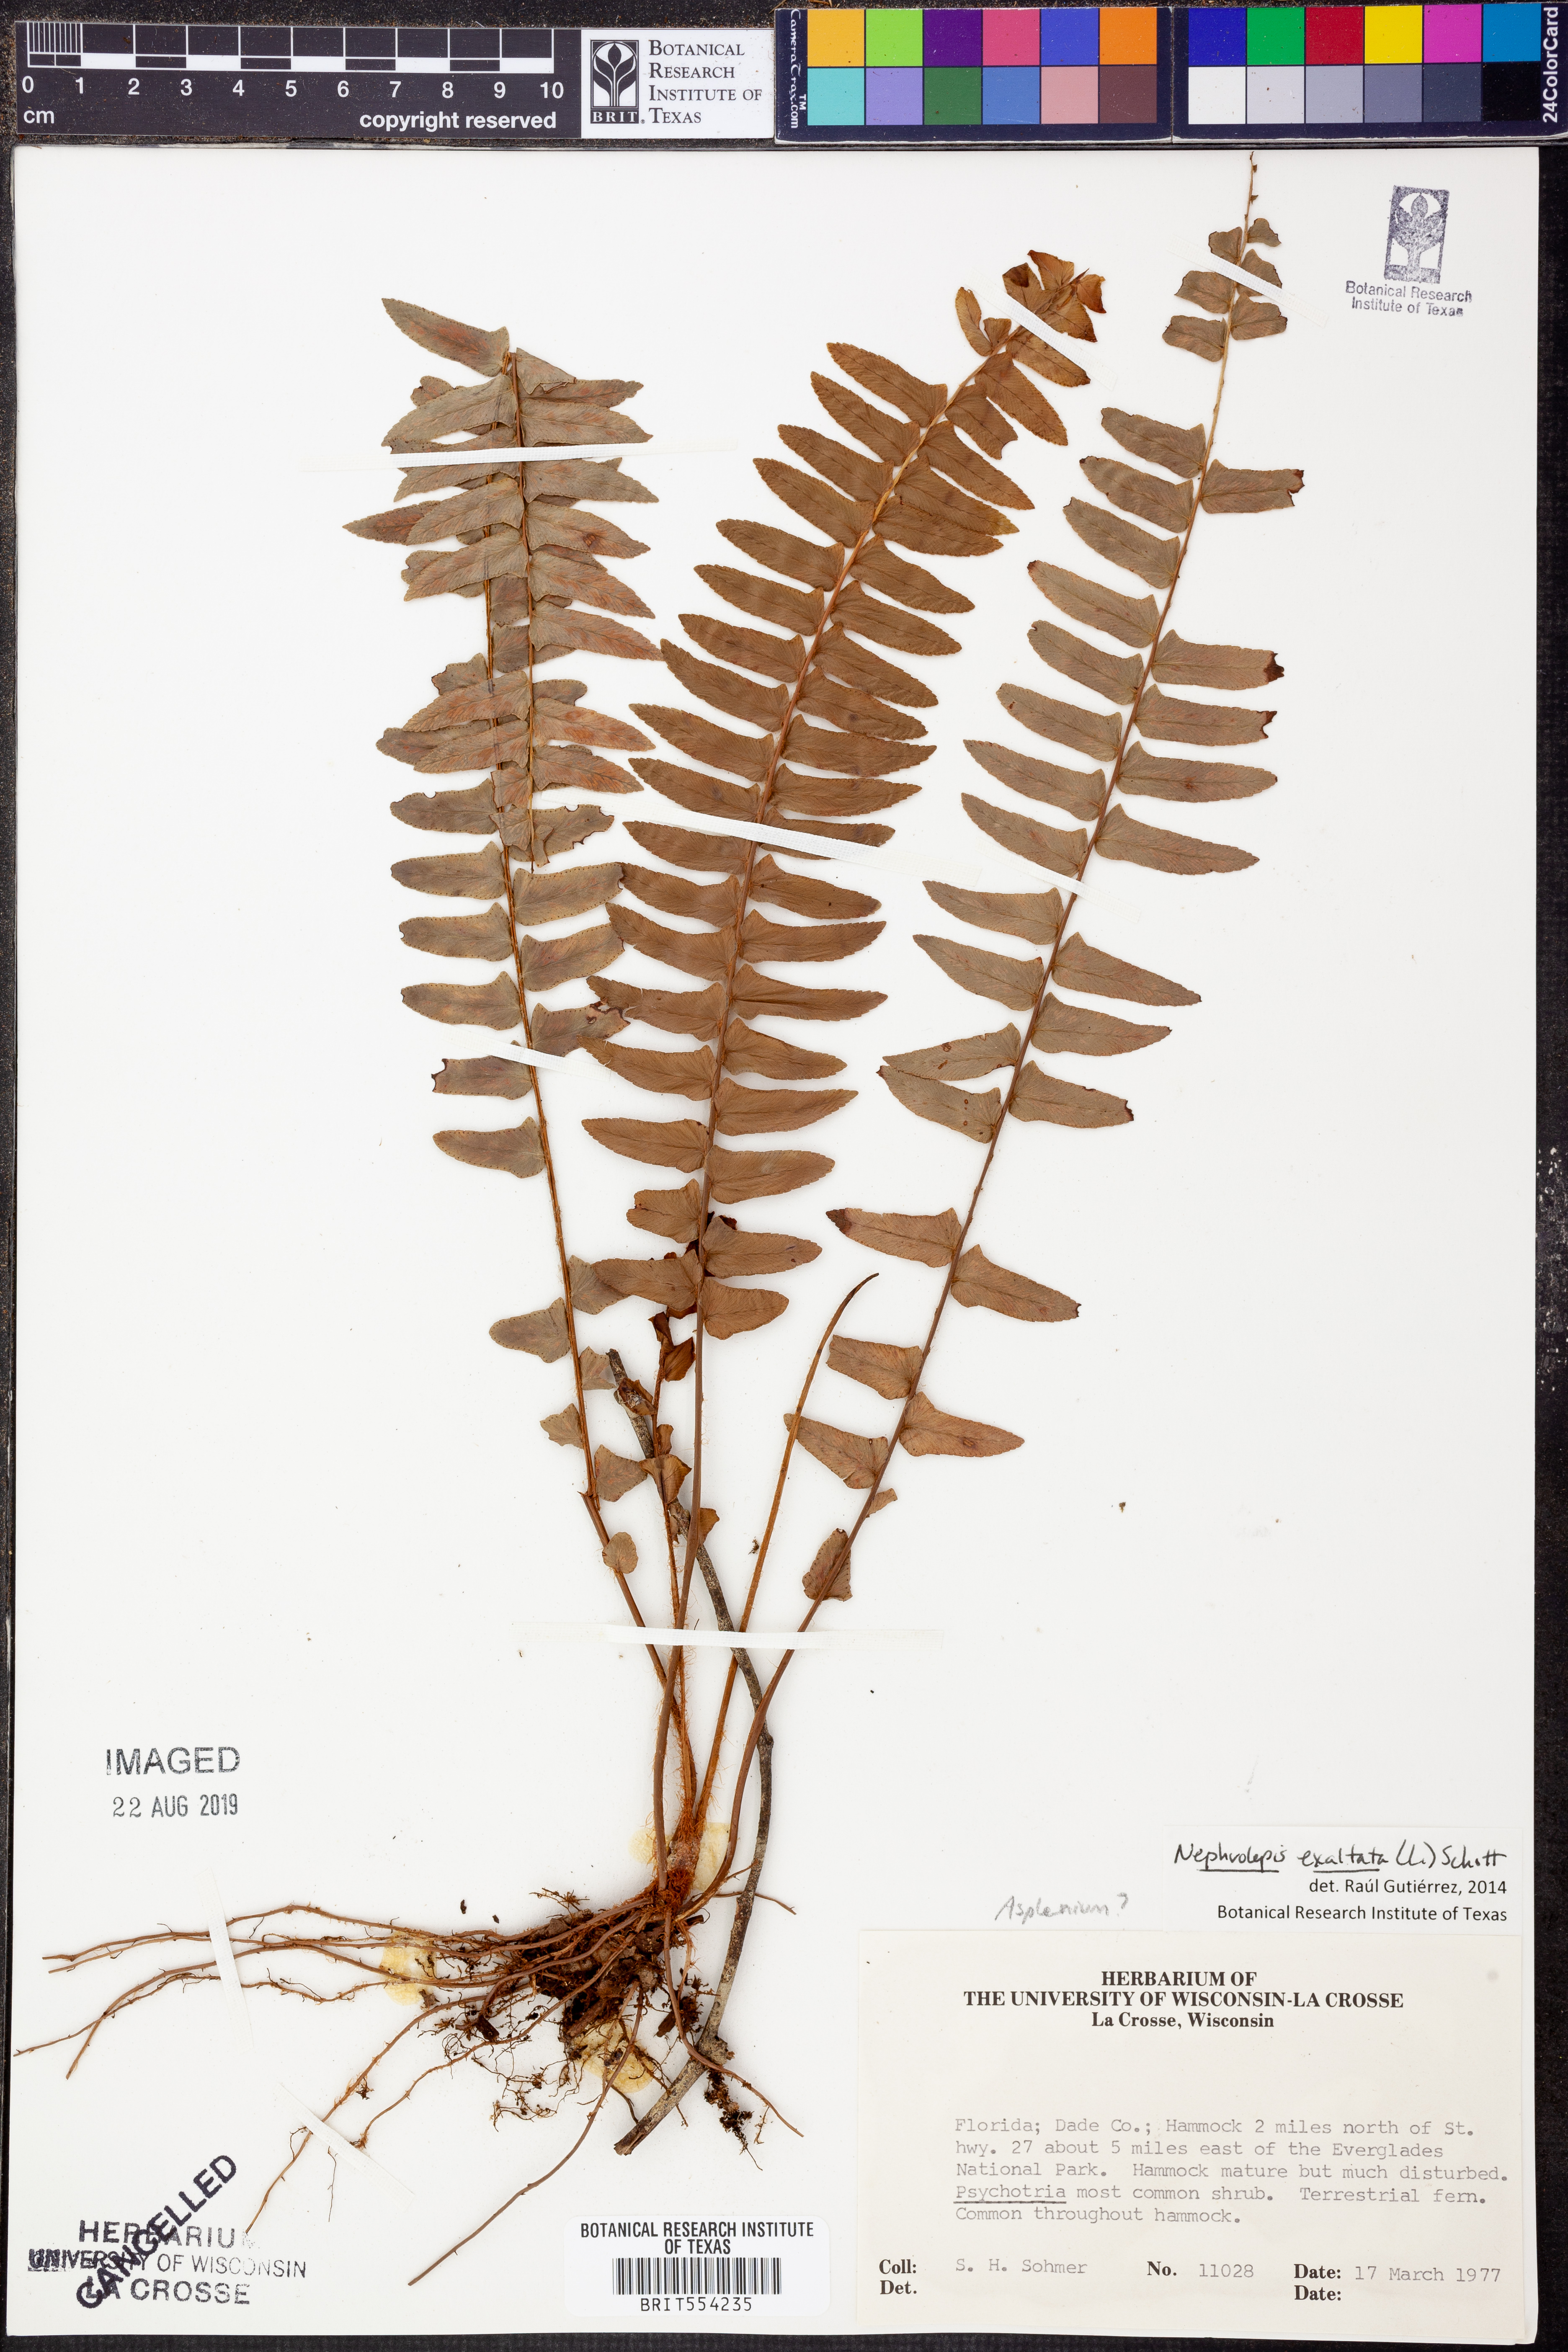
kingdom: Plantae
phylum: Tracheophyta
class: Polypodiopsida
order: Polypodiales
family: Nephrolepidaceae
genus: Nephrolepis
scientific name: Nephrolepis exaltata
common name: Sword fern
